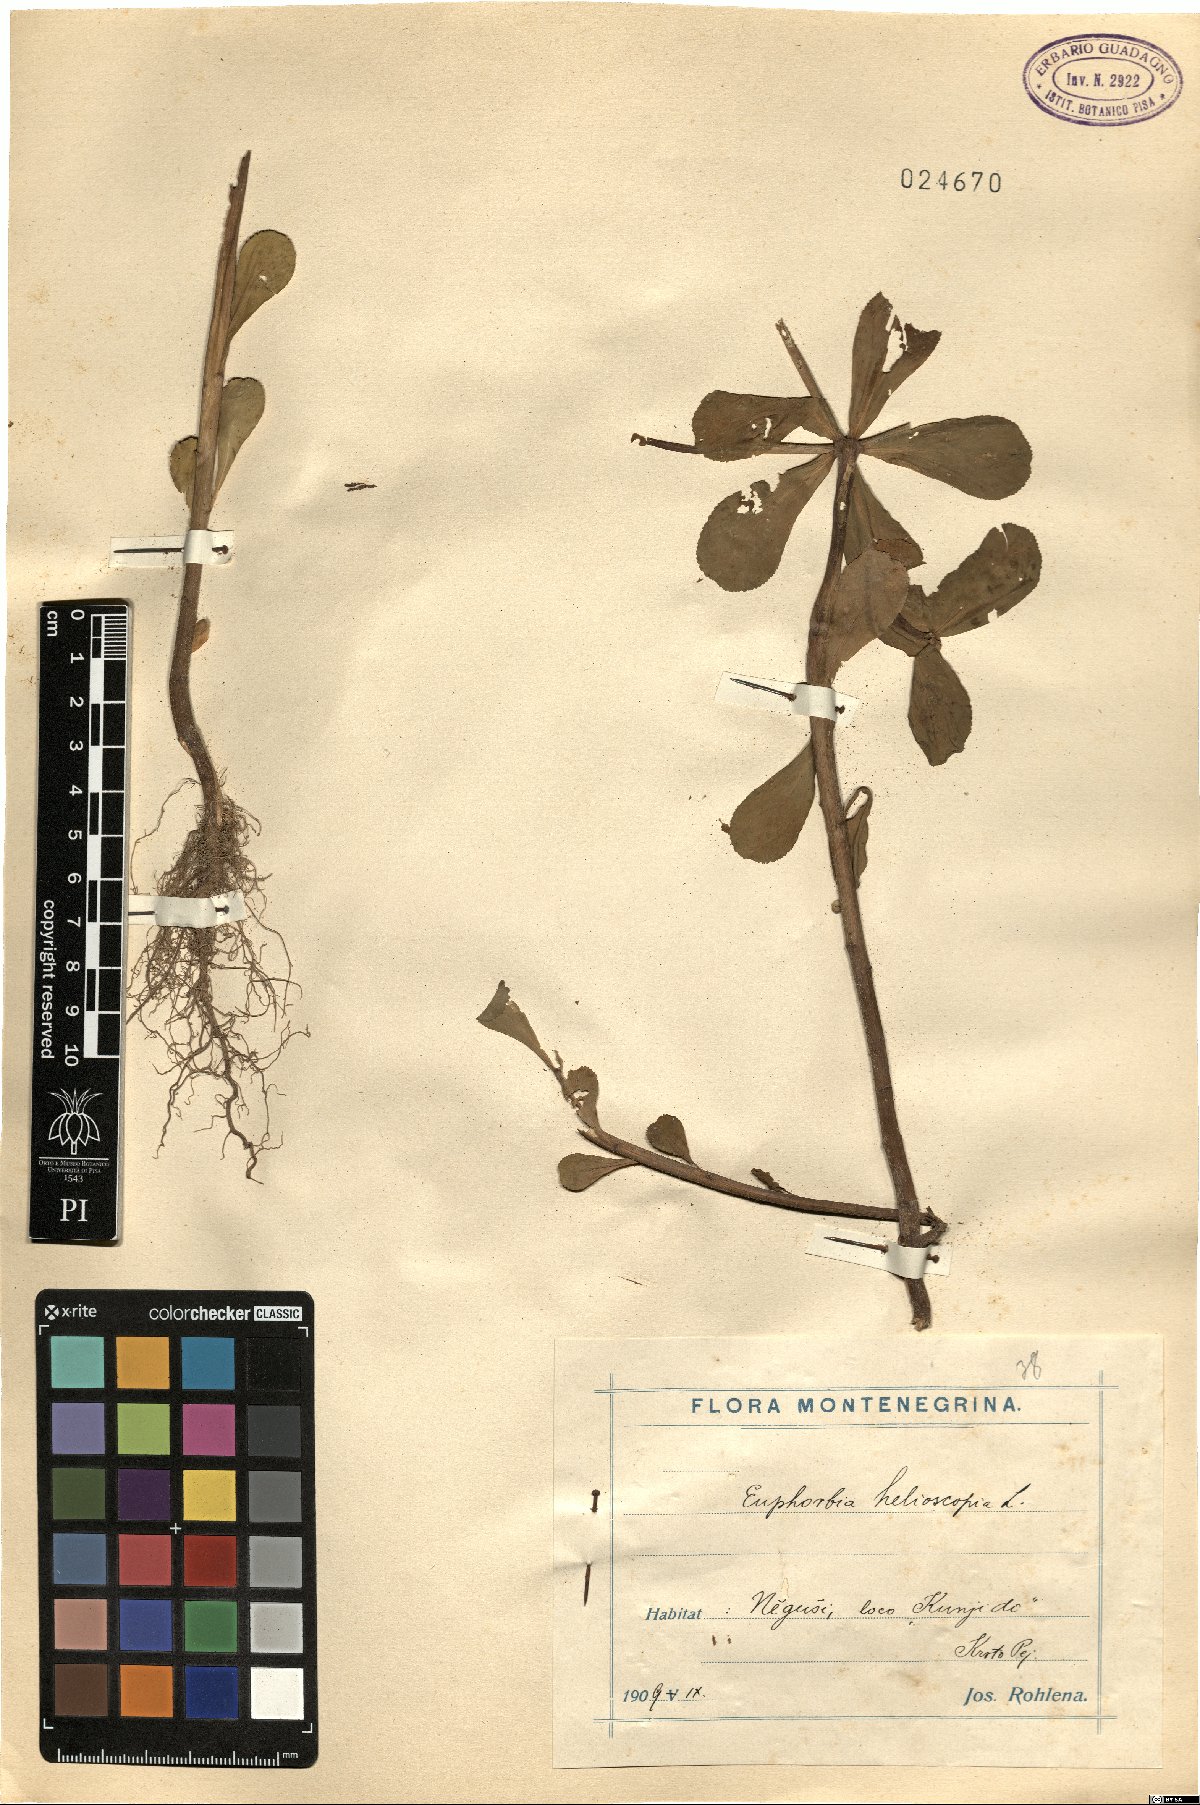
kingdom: Plantae
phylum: Tracheophyta
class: Magnoliopsida
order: Malpighiales
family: Euphorbiaceae
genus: Euphorbia
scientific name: Euphorbia helioscopia
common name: Sun spurge
